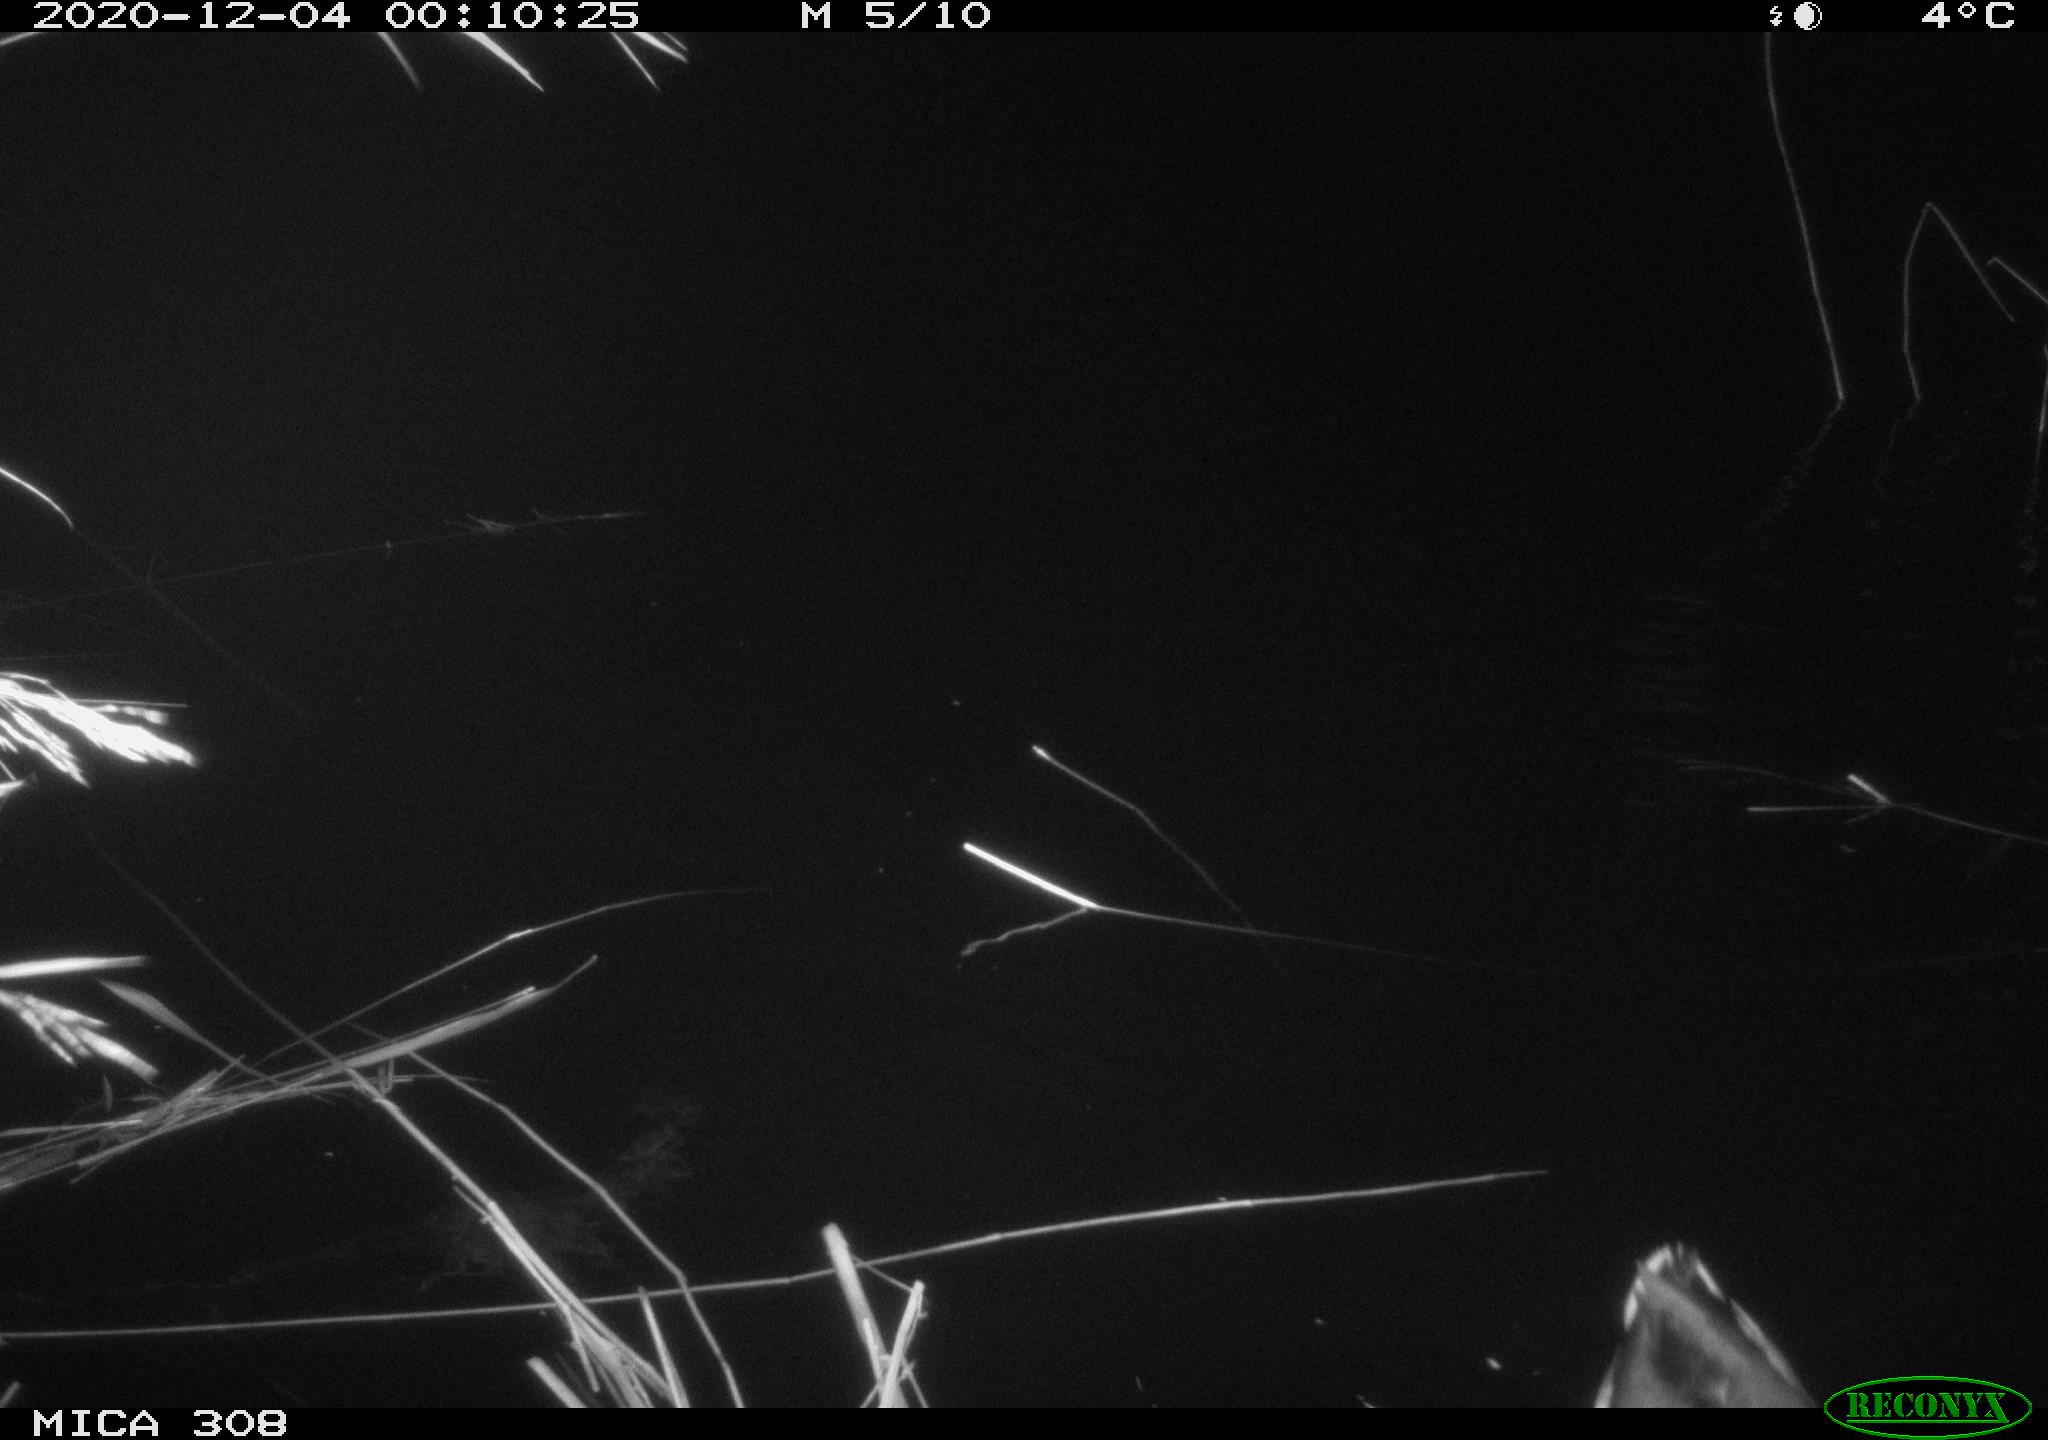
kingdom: Animalia
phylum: Chordata
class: Aves
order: Anseriformes
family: Anatidae
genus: Anas
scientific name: Anas platyrhynchos
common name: Mallard
